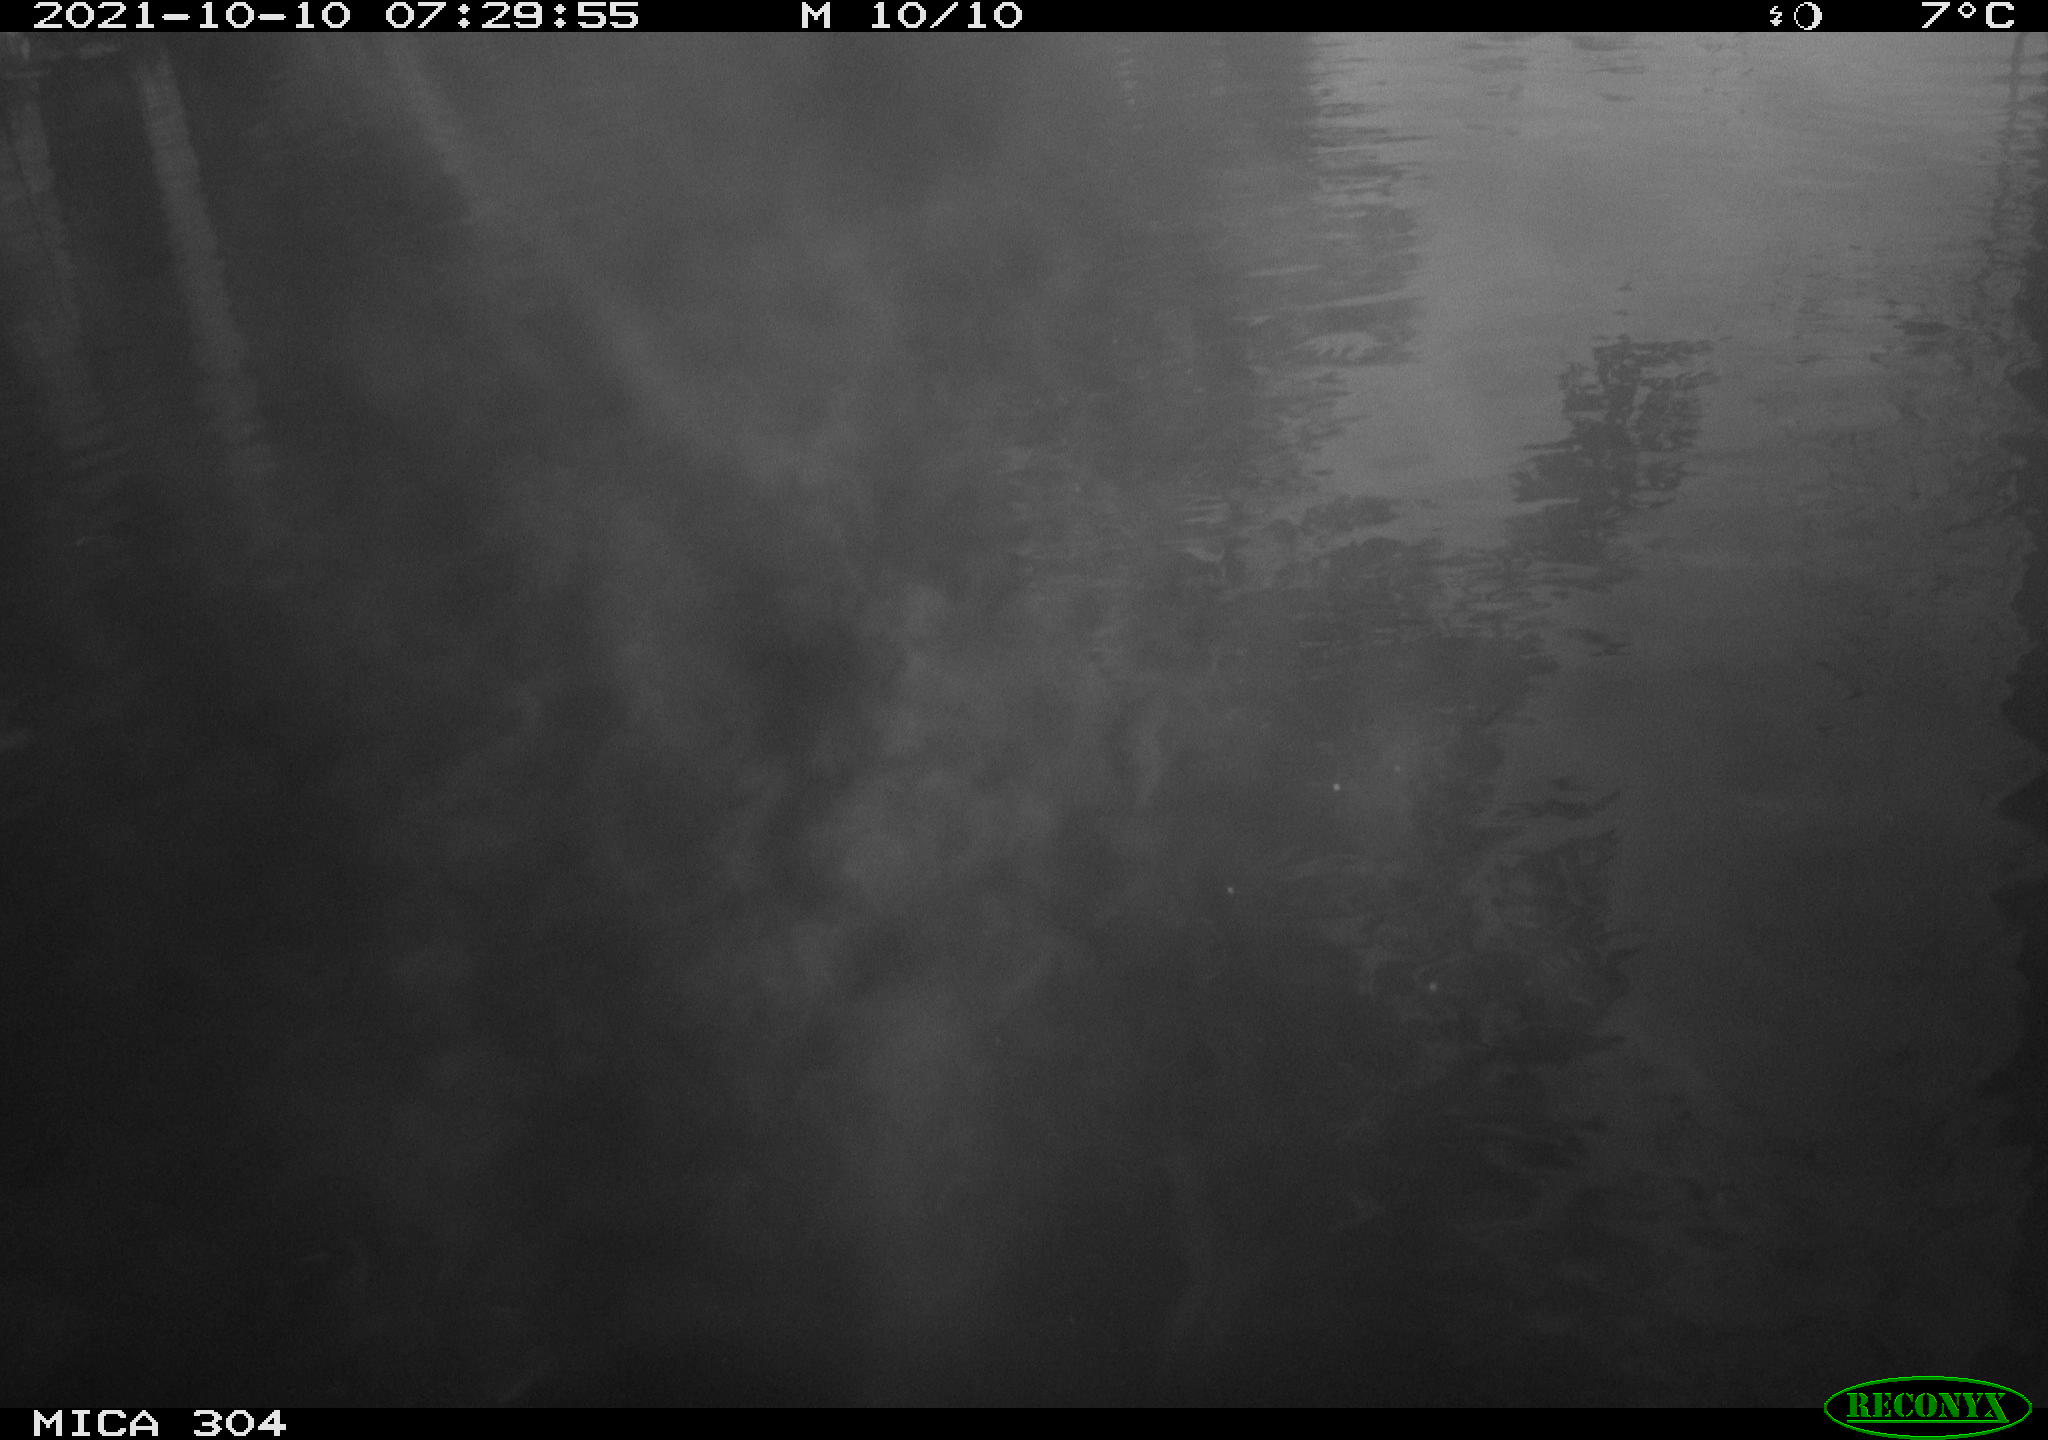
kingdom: Animalia
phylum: Chordata
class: Aves
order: Gruiformes
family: Rallidae
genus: Gallinula
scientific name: Gallinula chloropus
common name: Common moorhen
